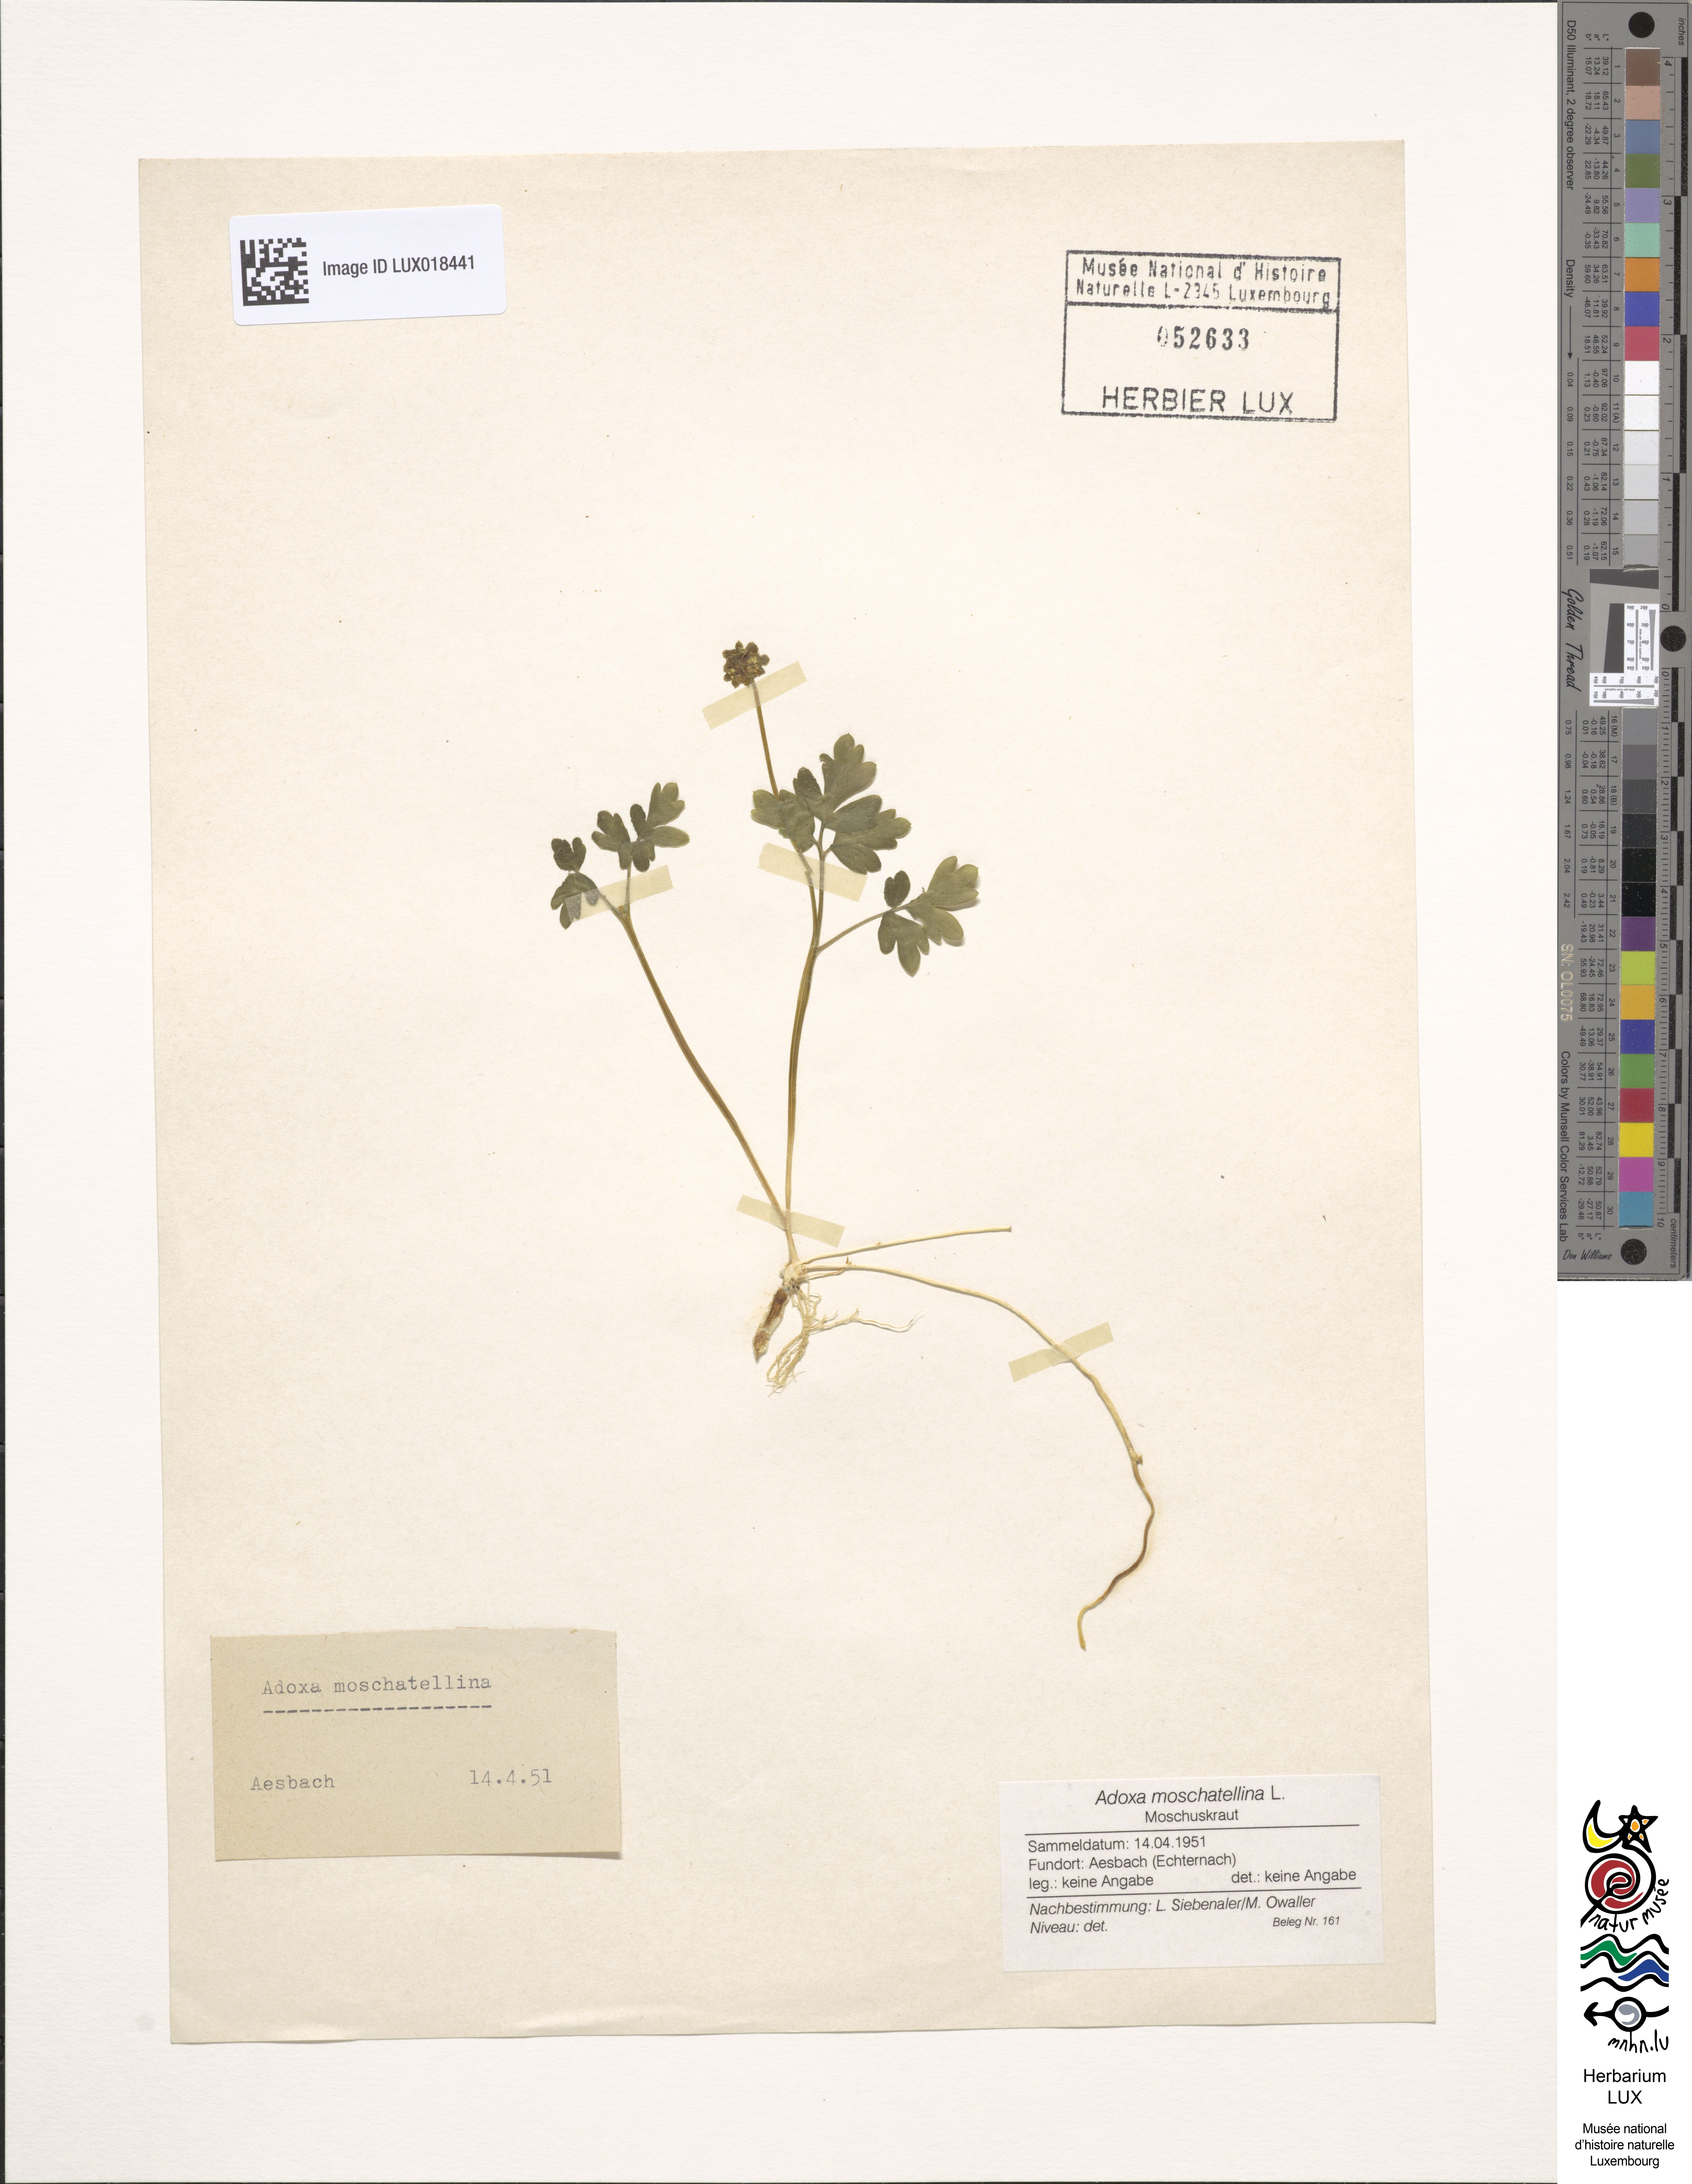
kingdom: Plantae
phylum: Tracheophyta
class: Magnoliopsida
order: Dipsacales
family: Viburnaceae
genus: Adoxa
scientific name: Adoxa moschatellina
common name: Moschatel
